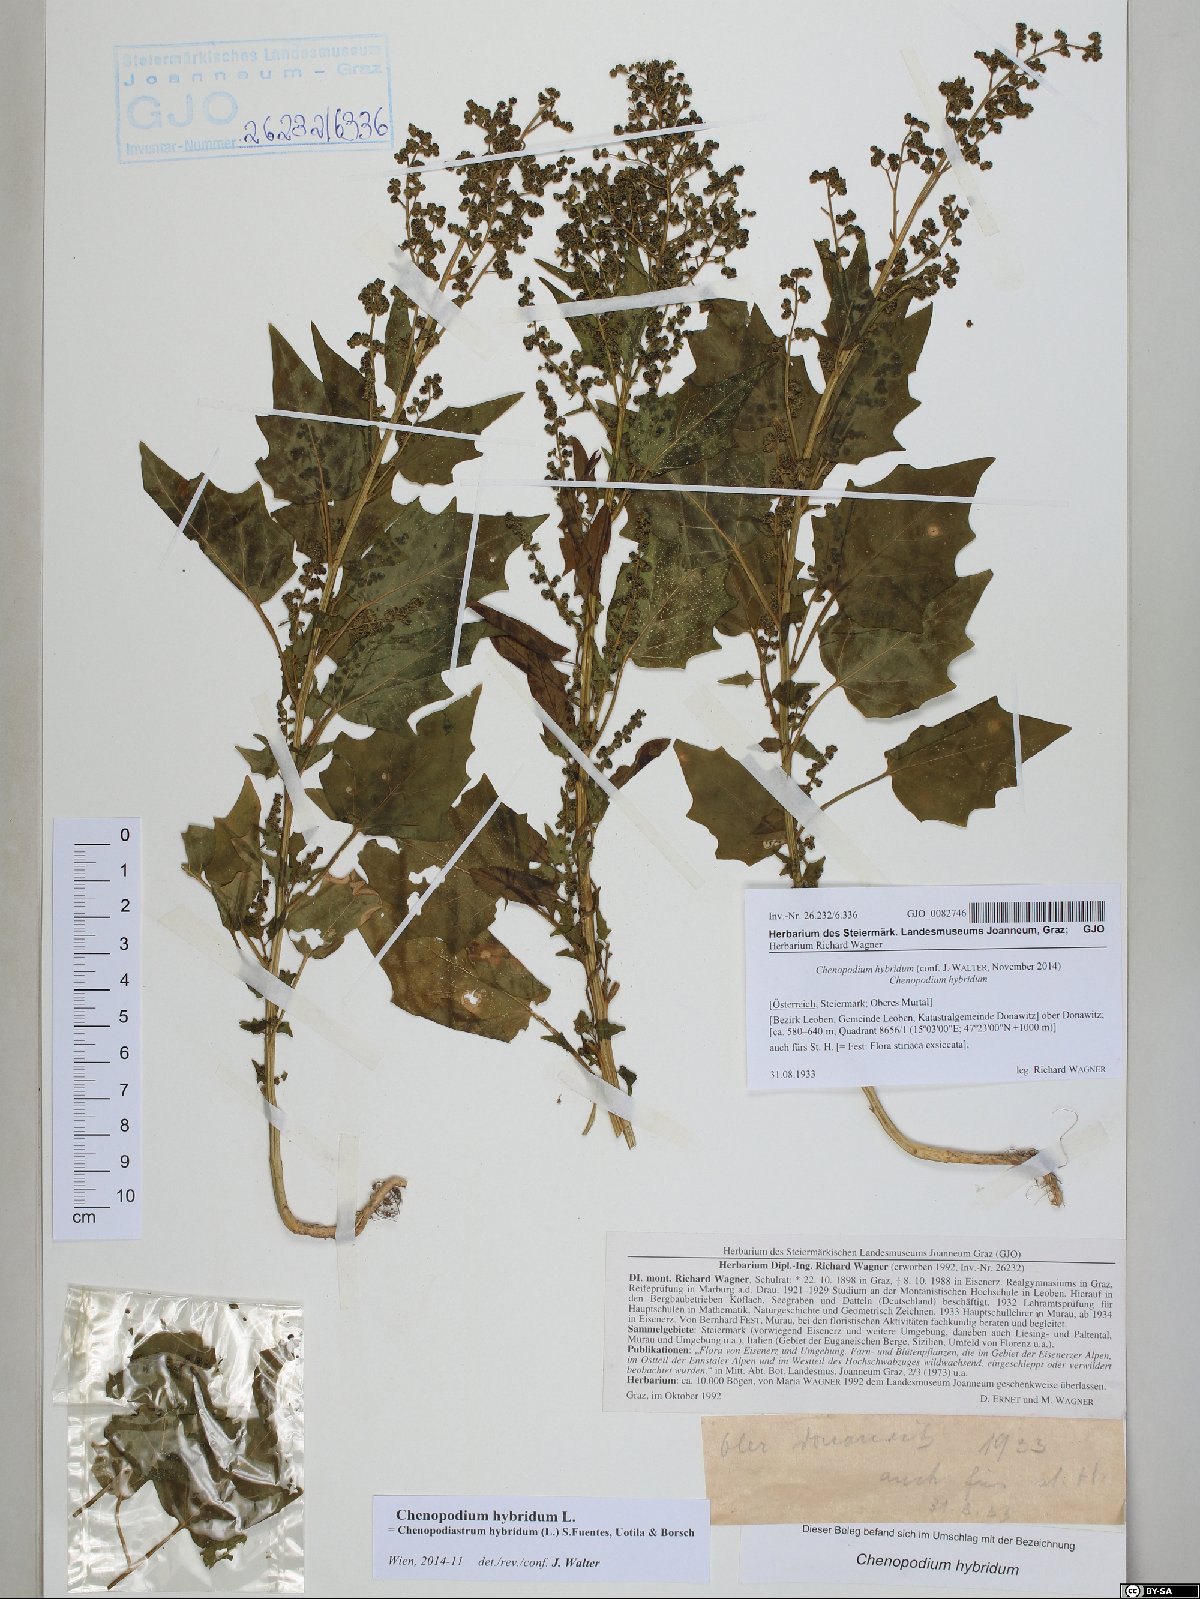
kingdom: Plantae
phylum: Tracheophyta
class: Magnoliopsida
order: Caryophyllales
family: Amaranthaceae
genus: Chenopodiastrum
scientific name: Chenopodiastrum hybridum
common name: Mapleleaf goosefoot
